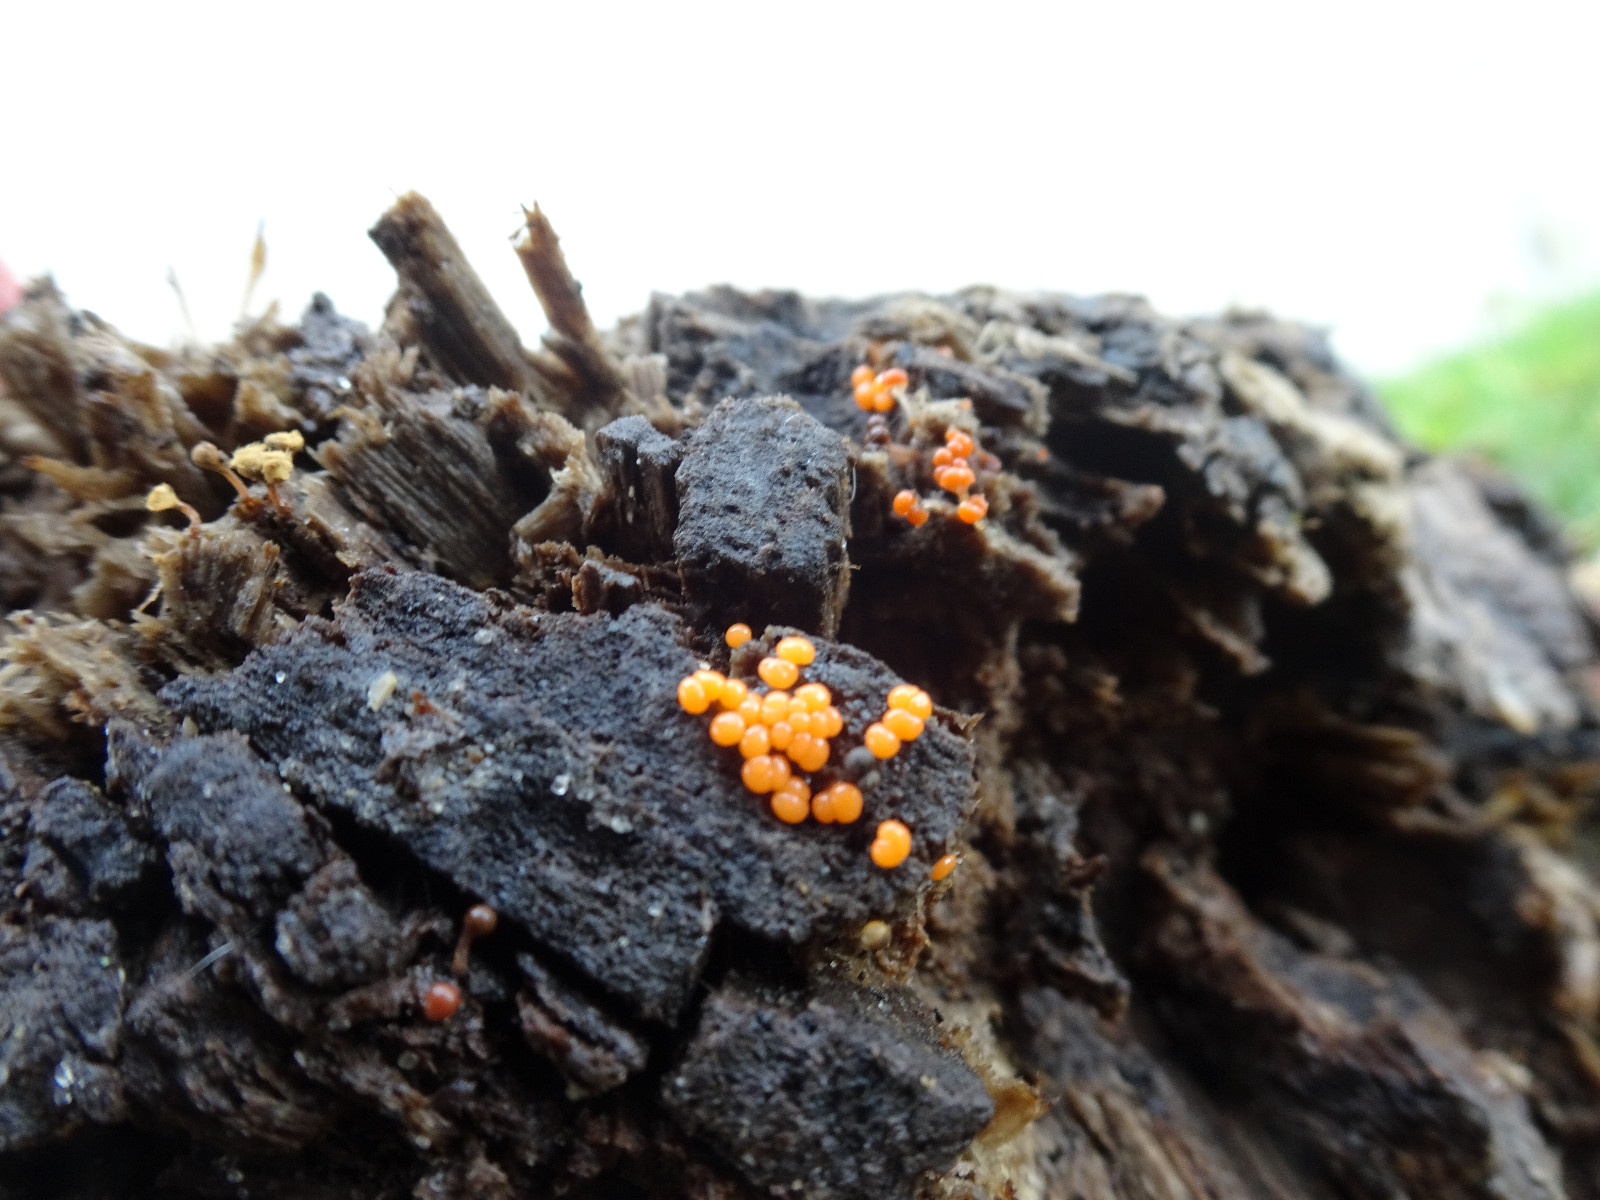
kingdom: Protozoa
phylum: Mycetozoa
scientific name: Mycetozoa
